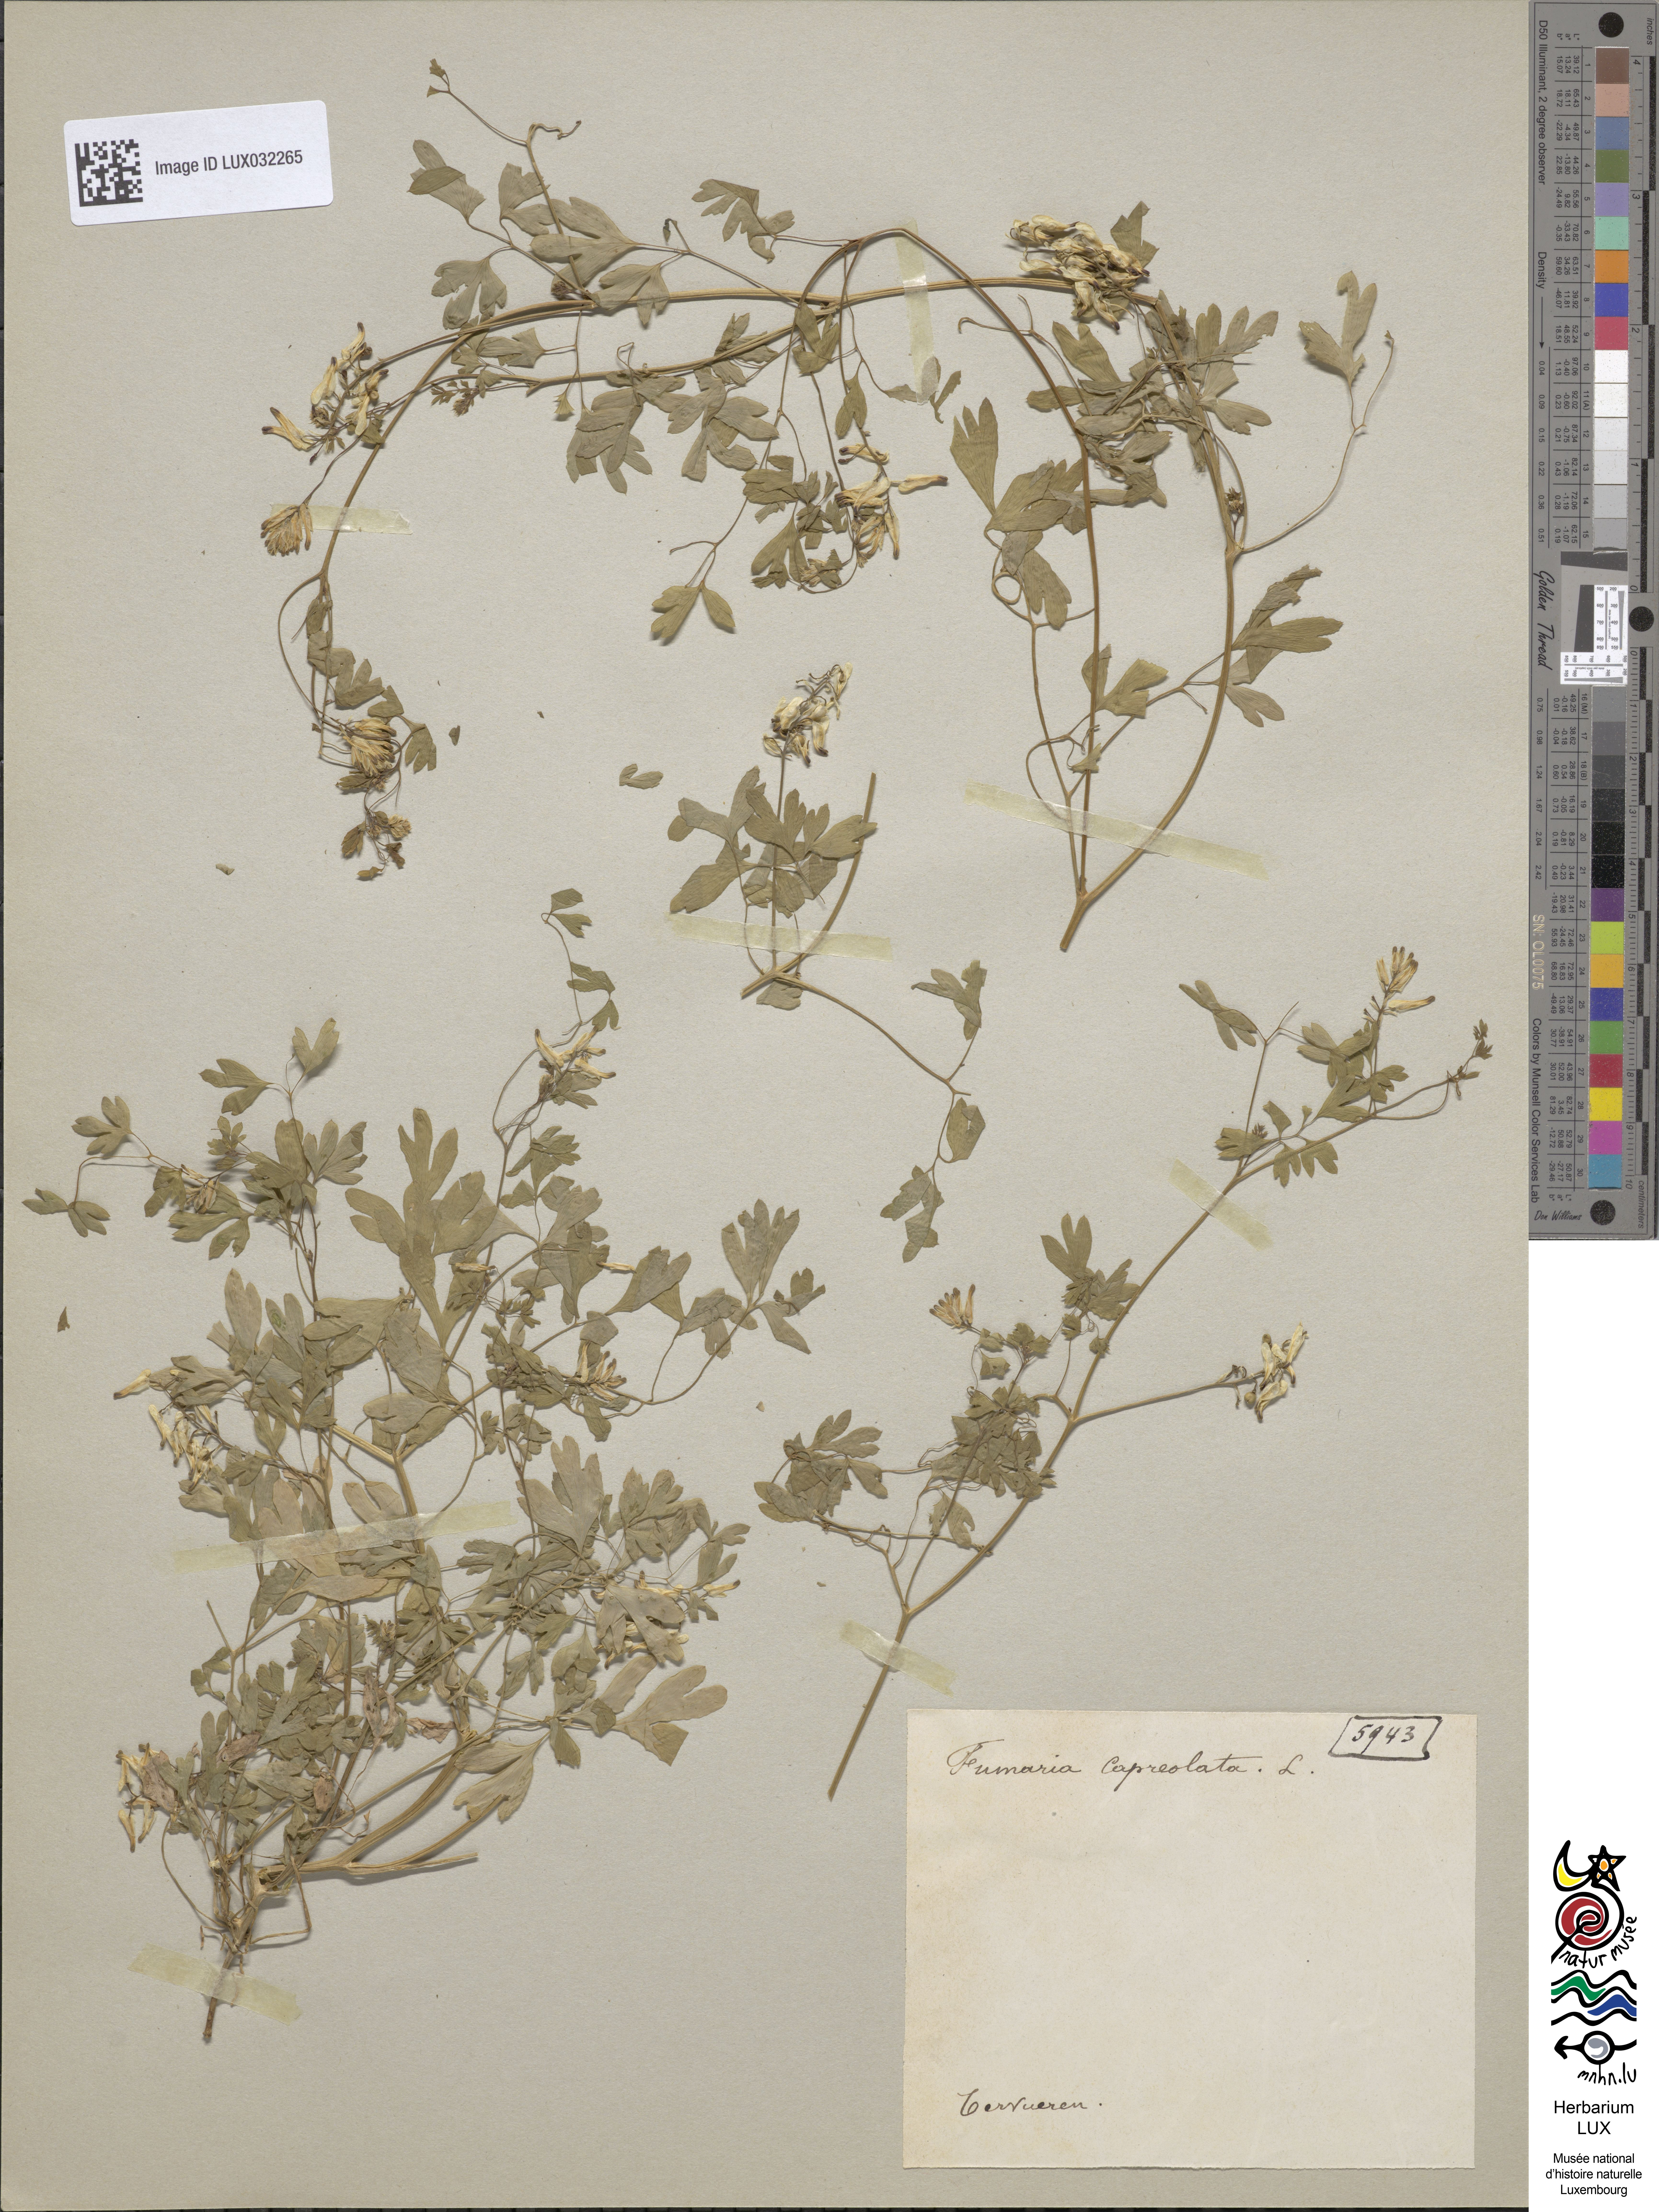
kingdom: Plantae
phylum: Tracheophyta
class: Magnoliopsida
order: Ranunculales
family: Papaveraceae
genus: Fumaria
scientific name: Fumaria capreolata
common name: White ramping-fumitory
